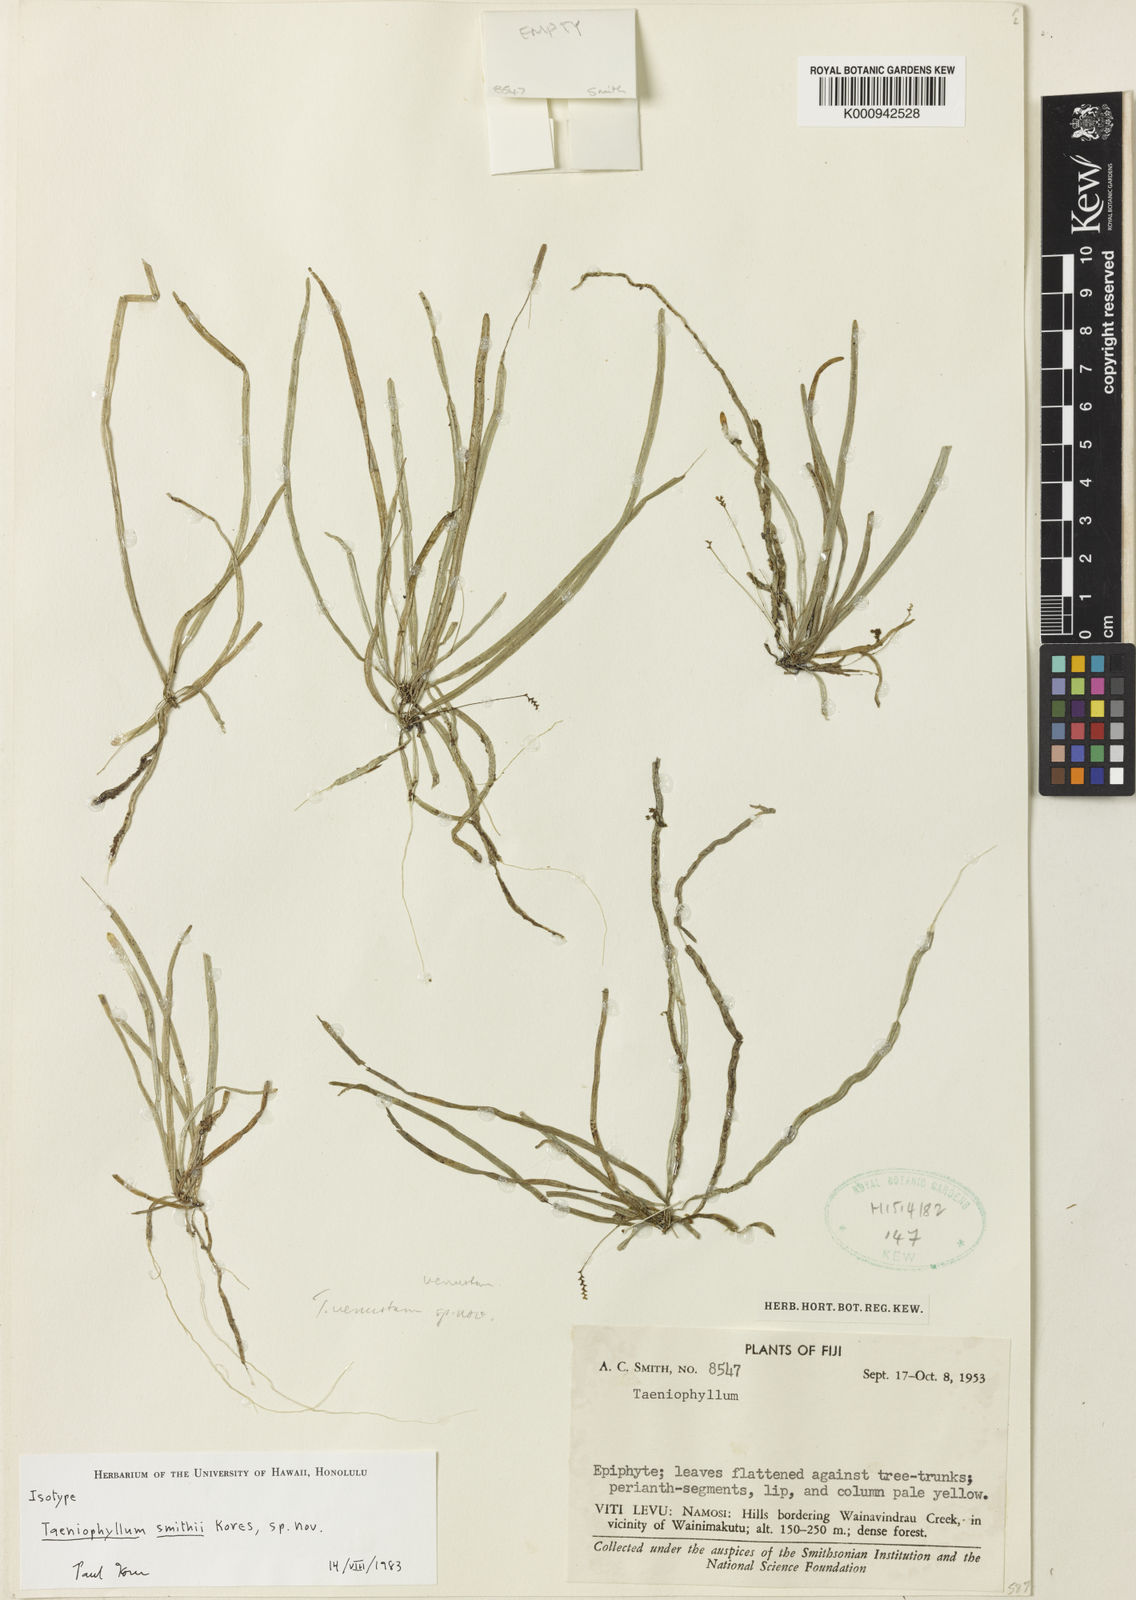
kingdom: Plantae
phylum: Tracheophyta
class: Liliopsida
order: Asparagales
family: Orchidaceae
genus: Taeniophyllum
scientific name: Taeniophyllum smithii
